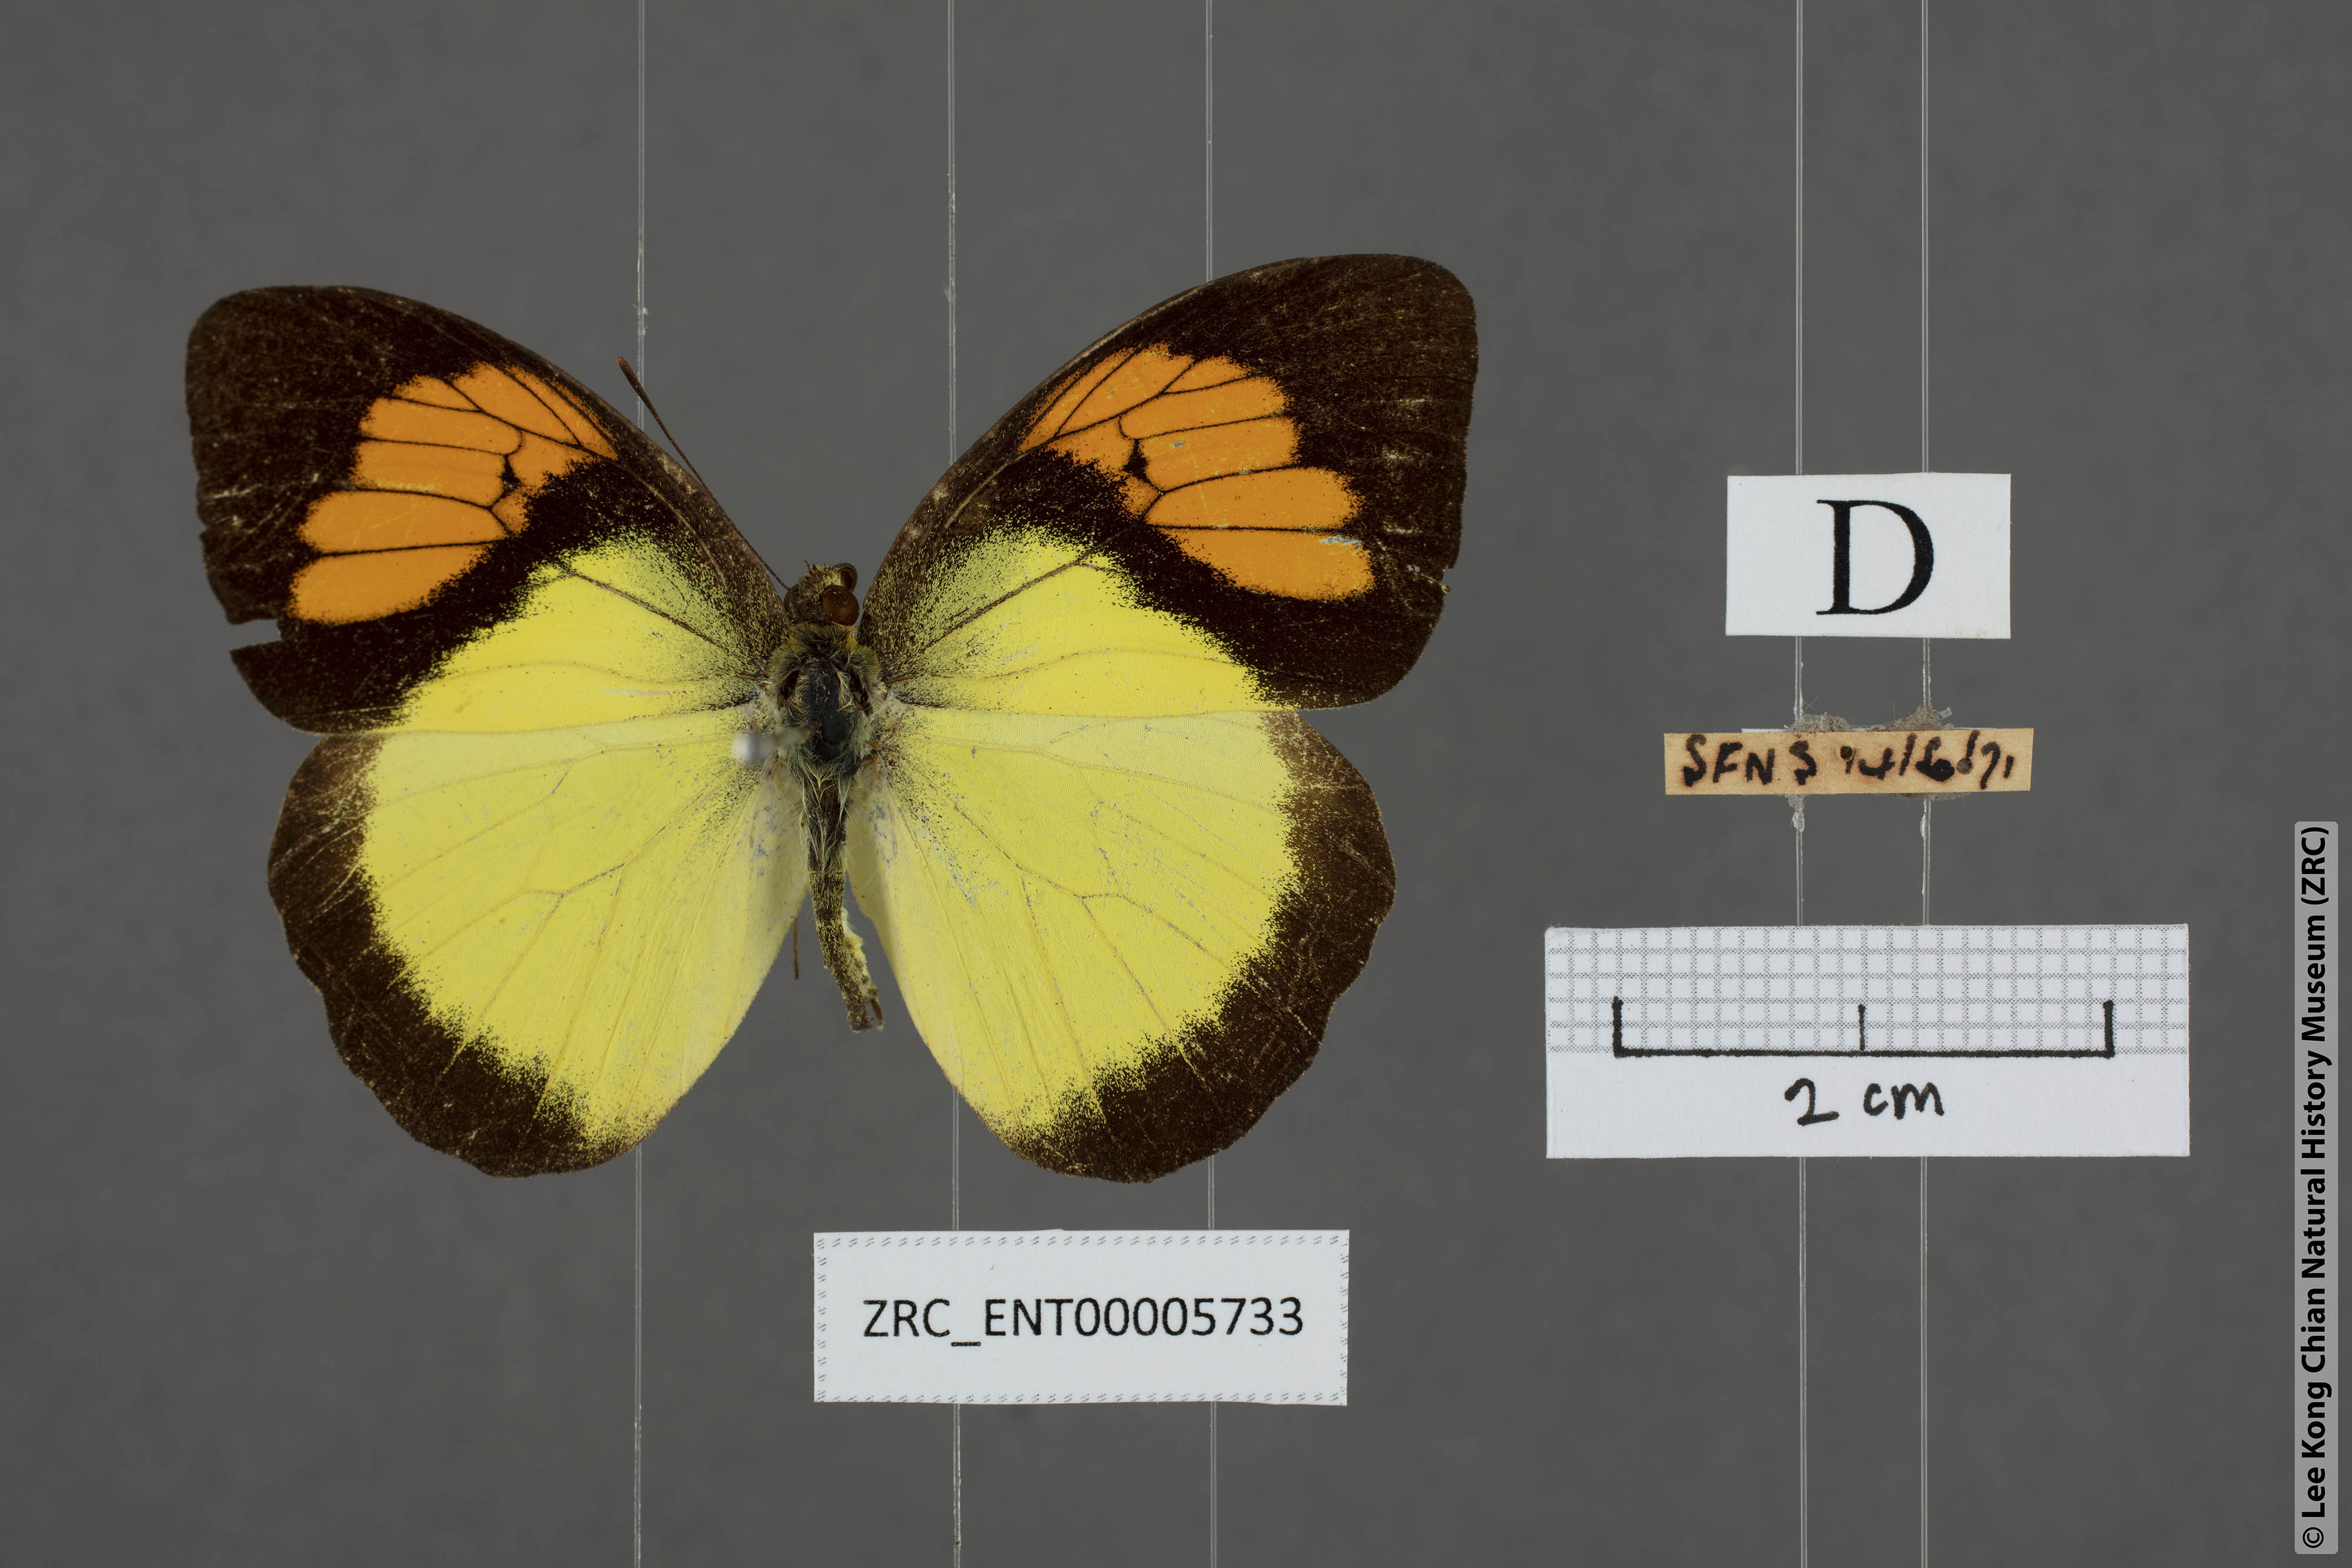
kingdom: Animalia
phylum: Arthropoda
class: Insecta
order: Lepidoptera
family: Pieridae
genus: Ixias
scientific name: Ixias pyrene
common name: Yellow orange tip
